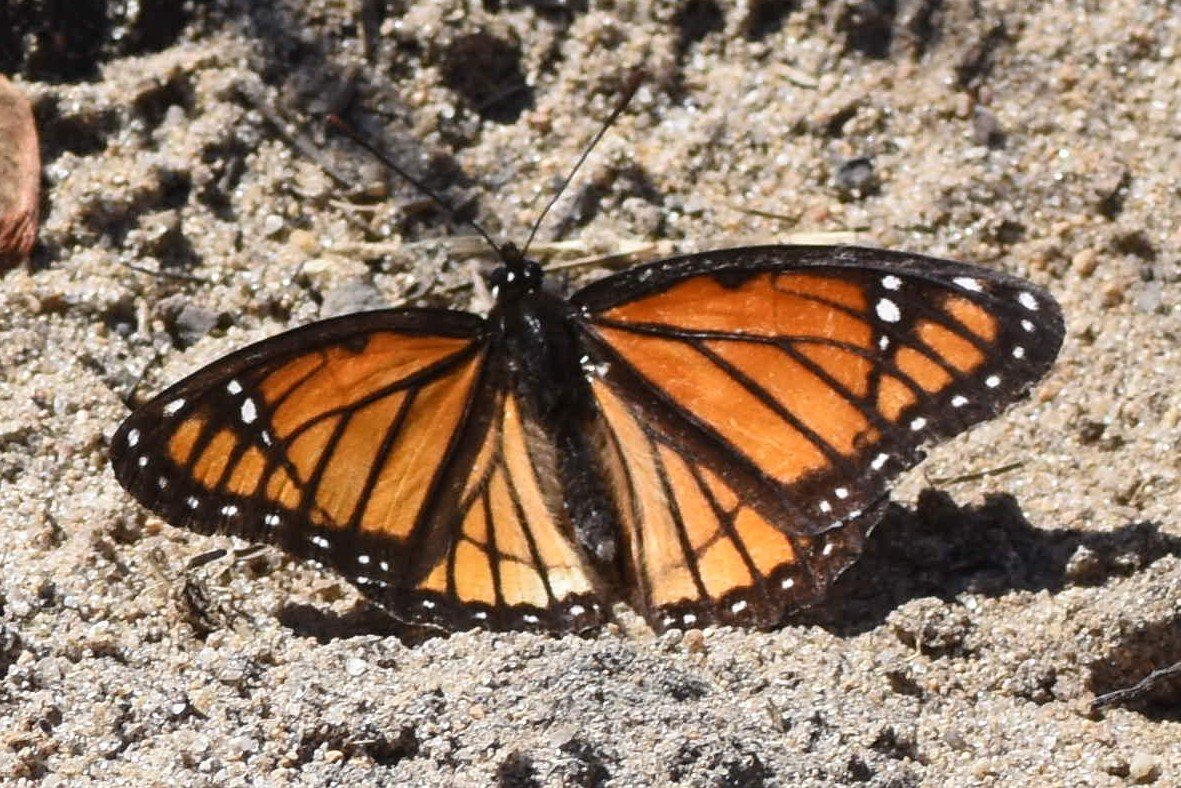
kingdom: Animalia
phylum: Arthropoda
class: Insecta
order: Lepidoptera
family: Nymphalidae
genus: Limenitis
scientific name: Limenitis archippus
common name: Viceroy
